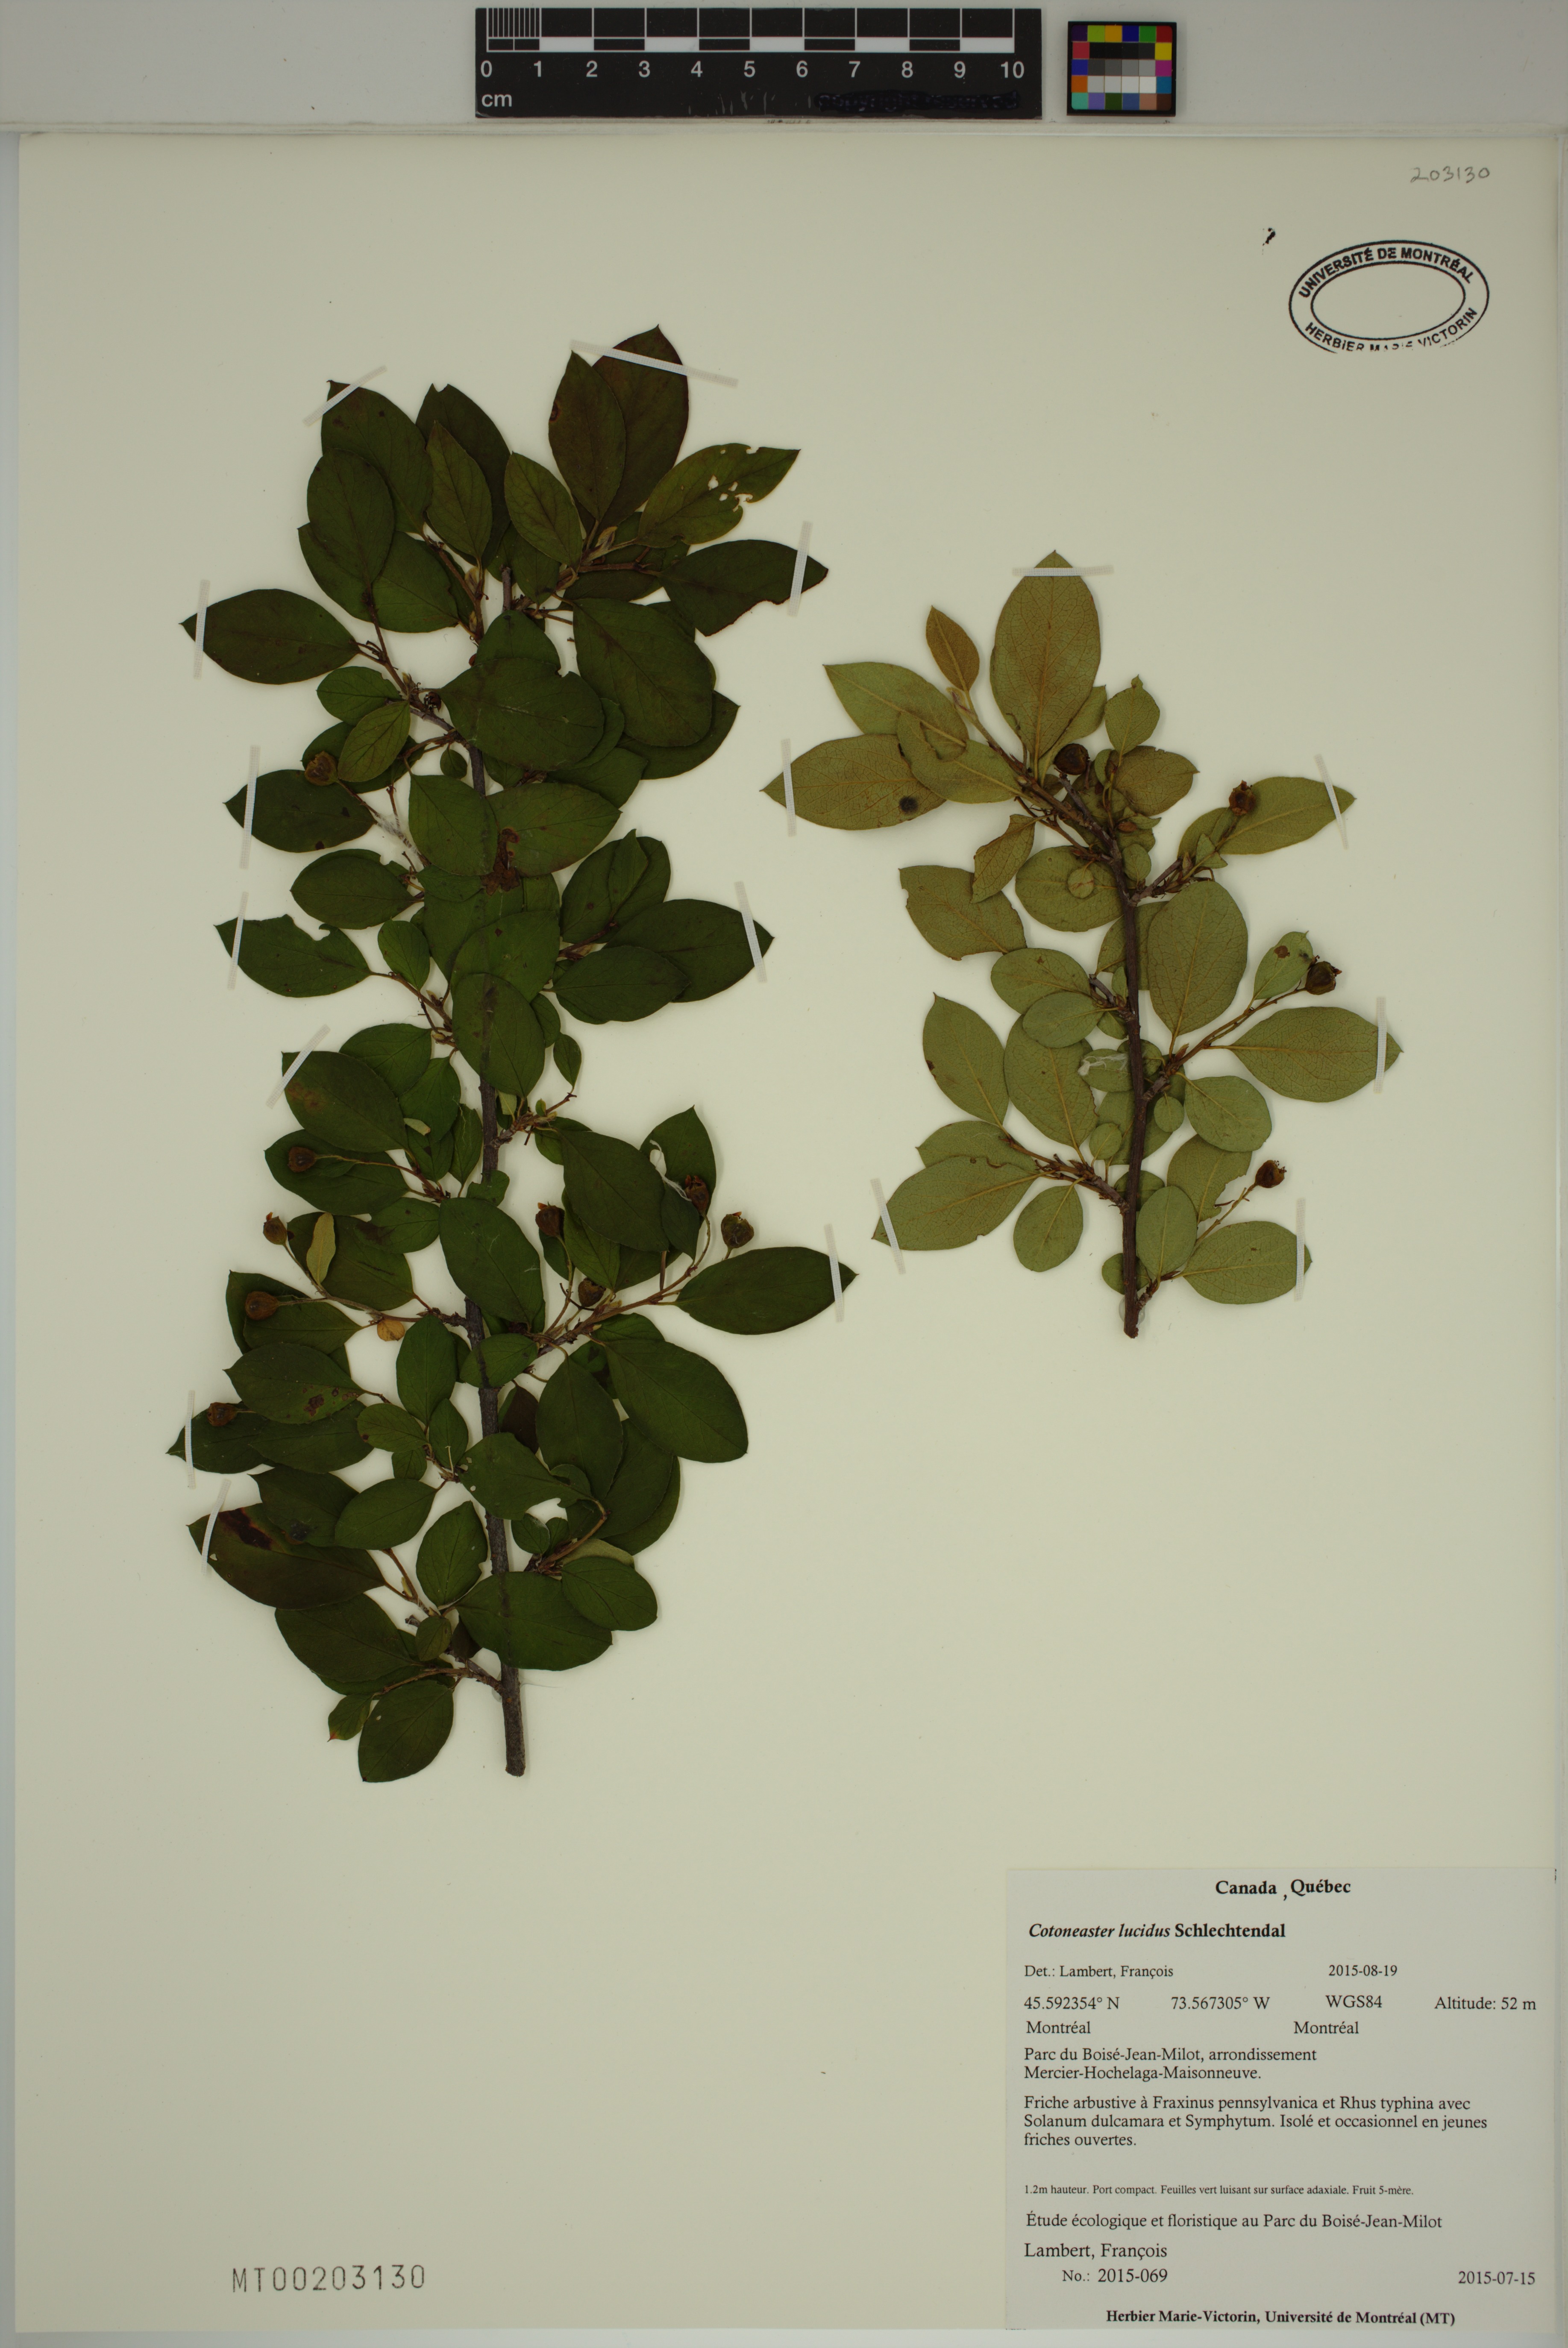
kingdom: Plantae
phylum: Tracheophyta
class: Magnoliopsida
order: Rosales
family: Rosaceae
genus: Cotoneaster
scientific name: Cotoneaster acutifolius
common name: Peking cotoneaster
